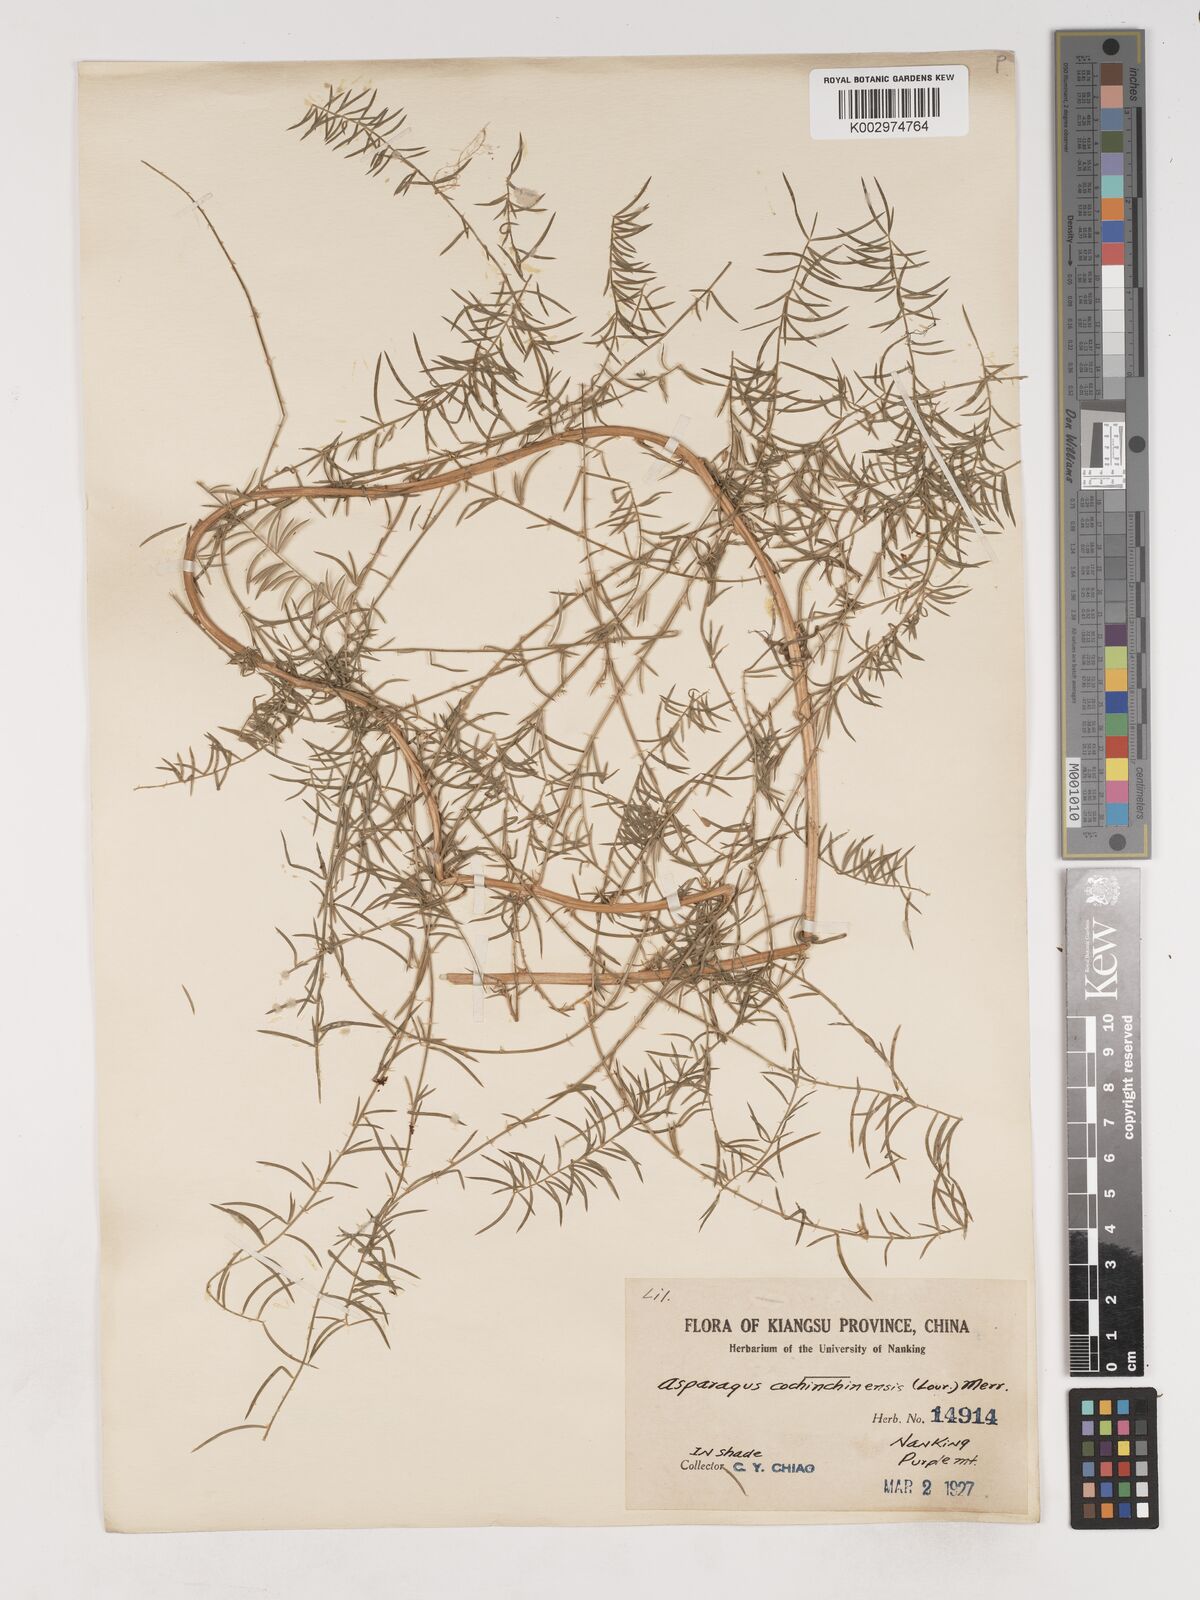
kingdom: Plantae
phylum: Tracheophyta
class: Liliopsida
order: Asparagales
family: Asparagaceae
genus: Asparagus
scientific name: Asparagus cochinchinensis
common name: Chinese asparagus
